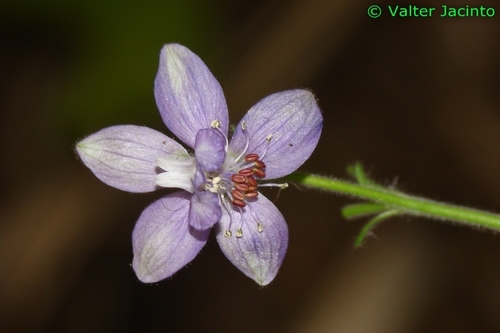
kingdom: Plantae
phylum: Tracheophyta
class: Magnoliopsida
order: Ranunculales
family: Ranunculaceae
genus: Staphisagria
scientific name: Staphisagria macrosperma
